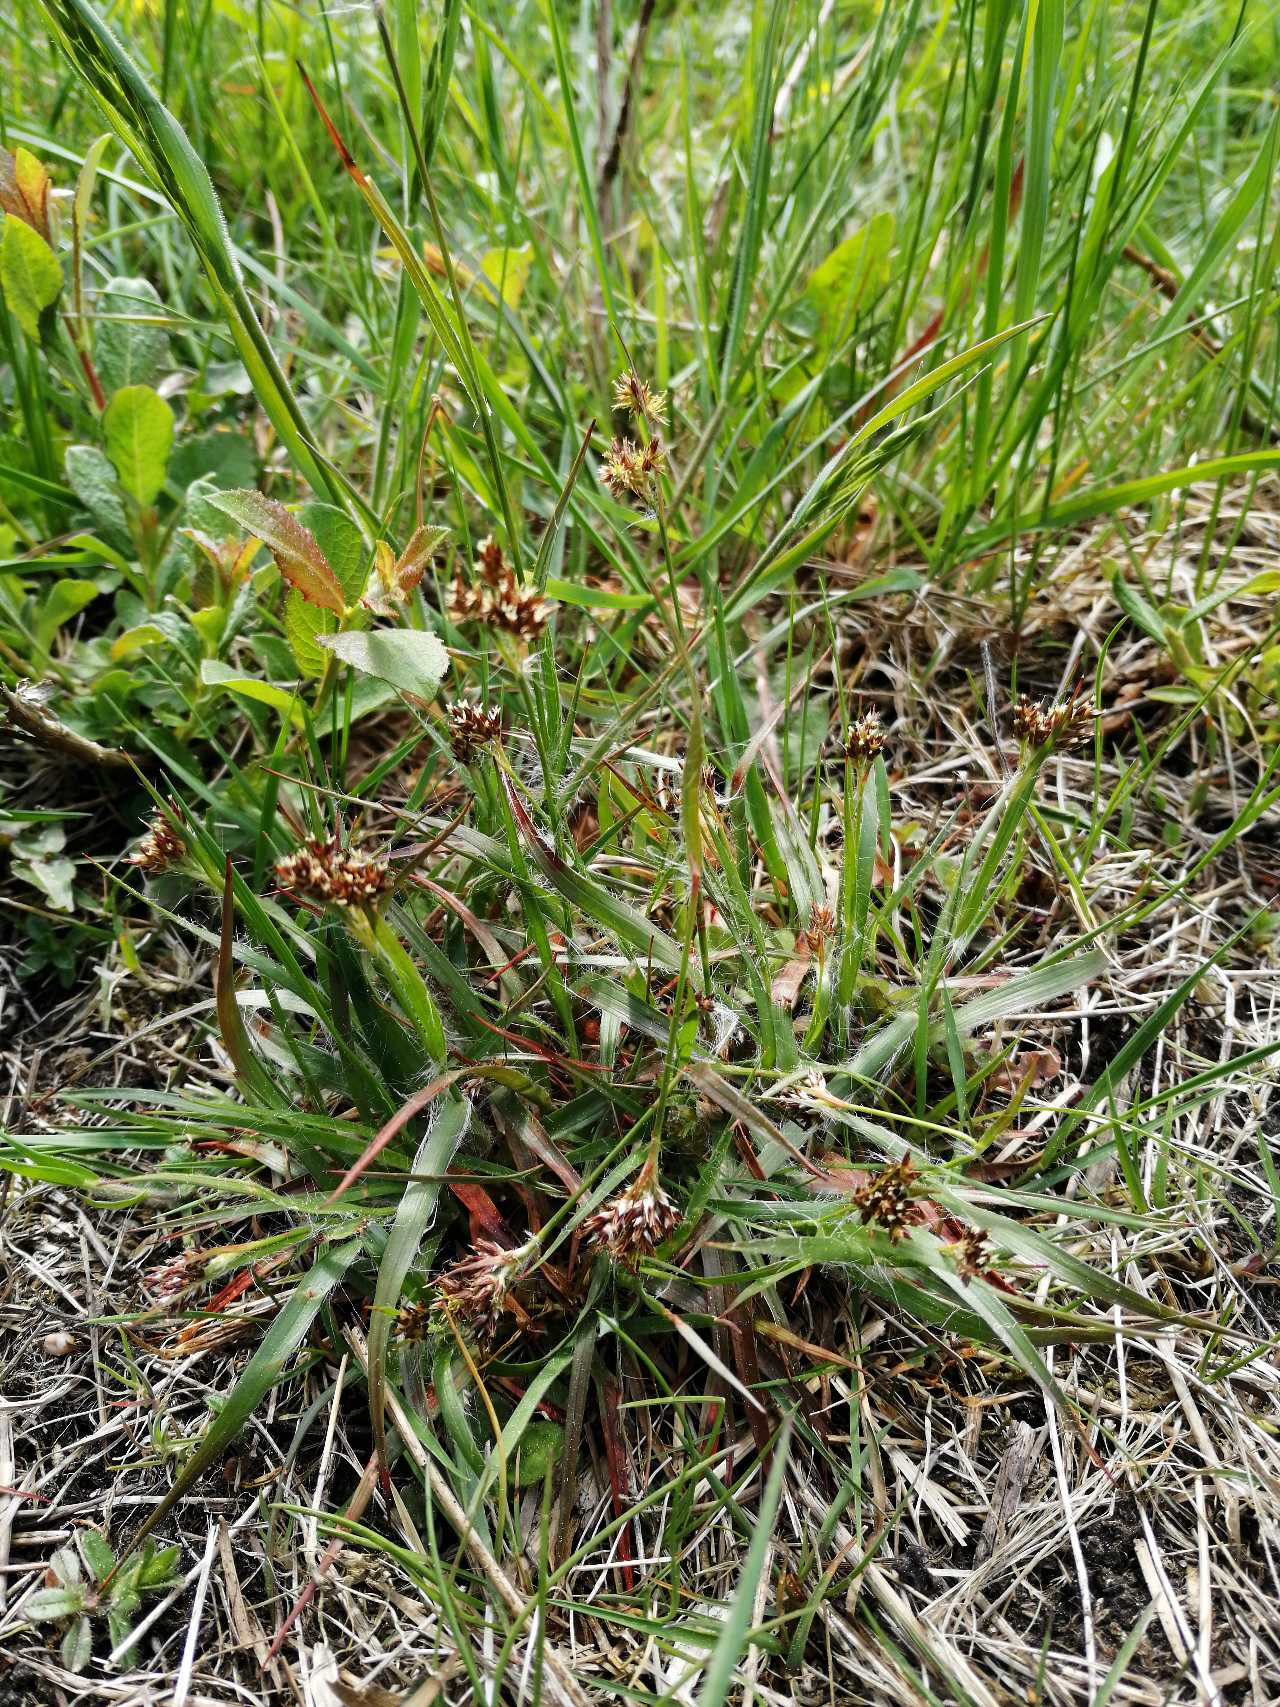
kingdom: Plantae
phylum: Tracheophyta
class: Liliopsida
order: Poales
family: Juncaceae
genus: Luzula
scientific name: Luzula multiflora
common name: Mangeblomstret frytle
